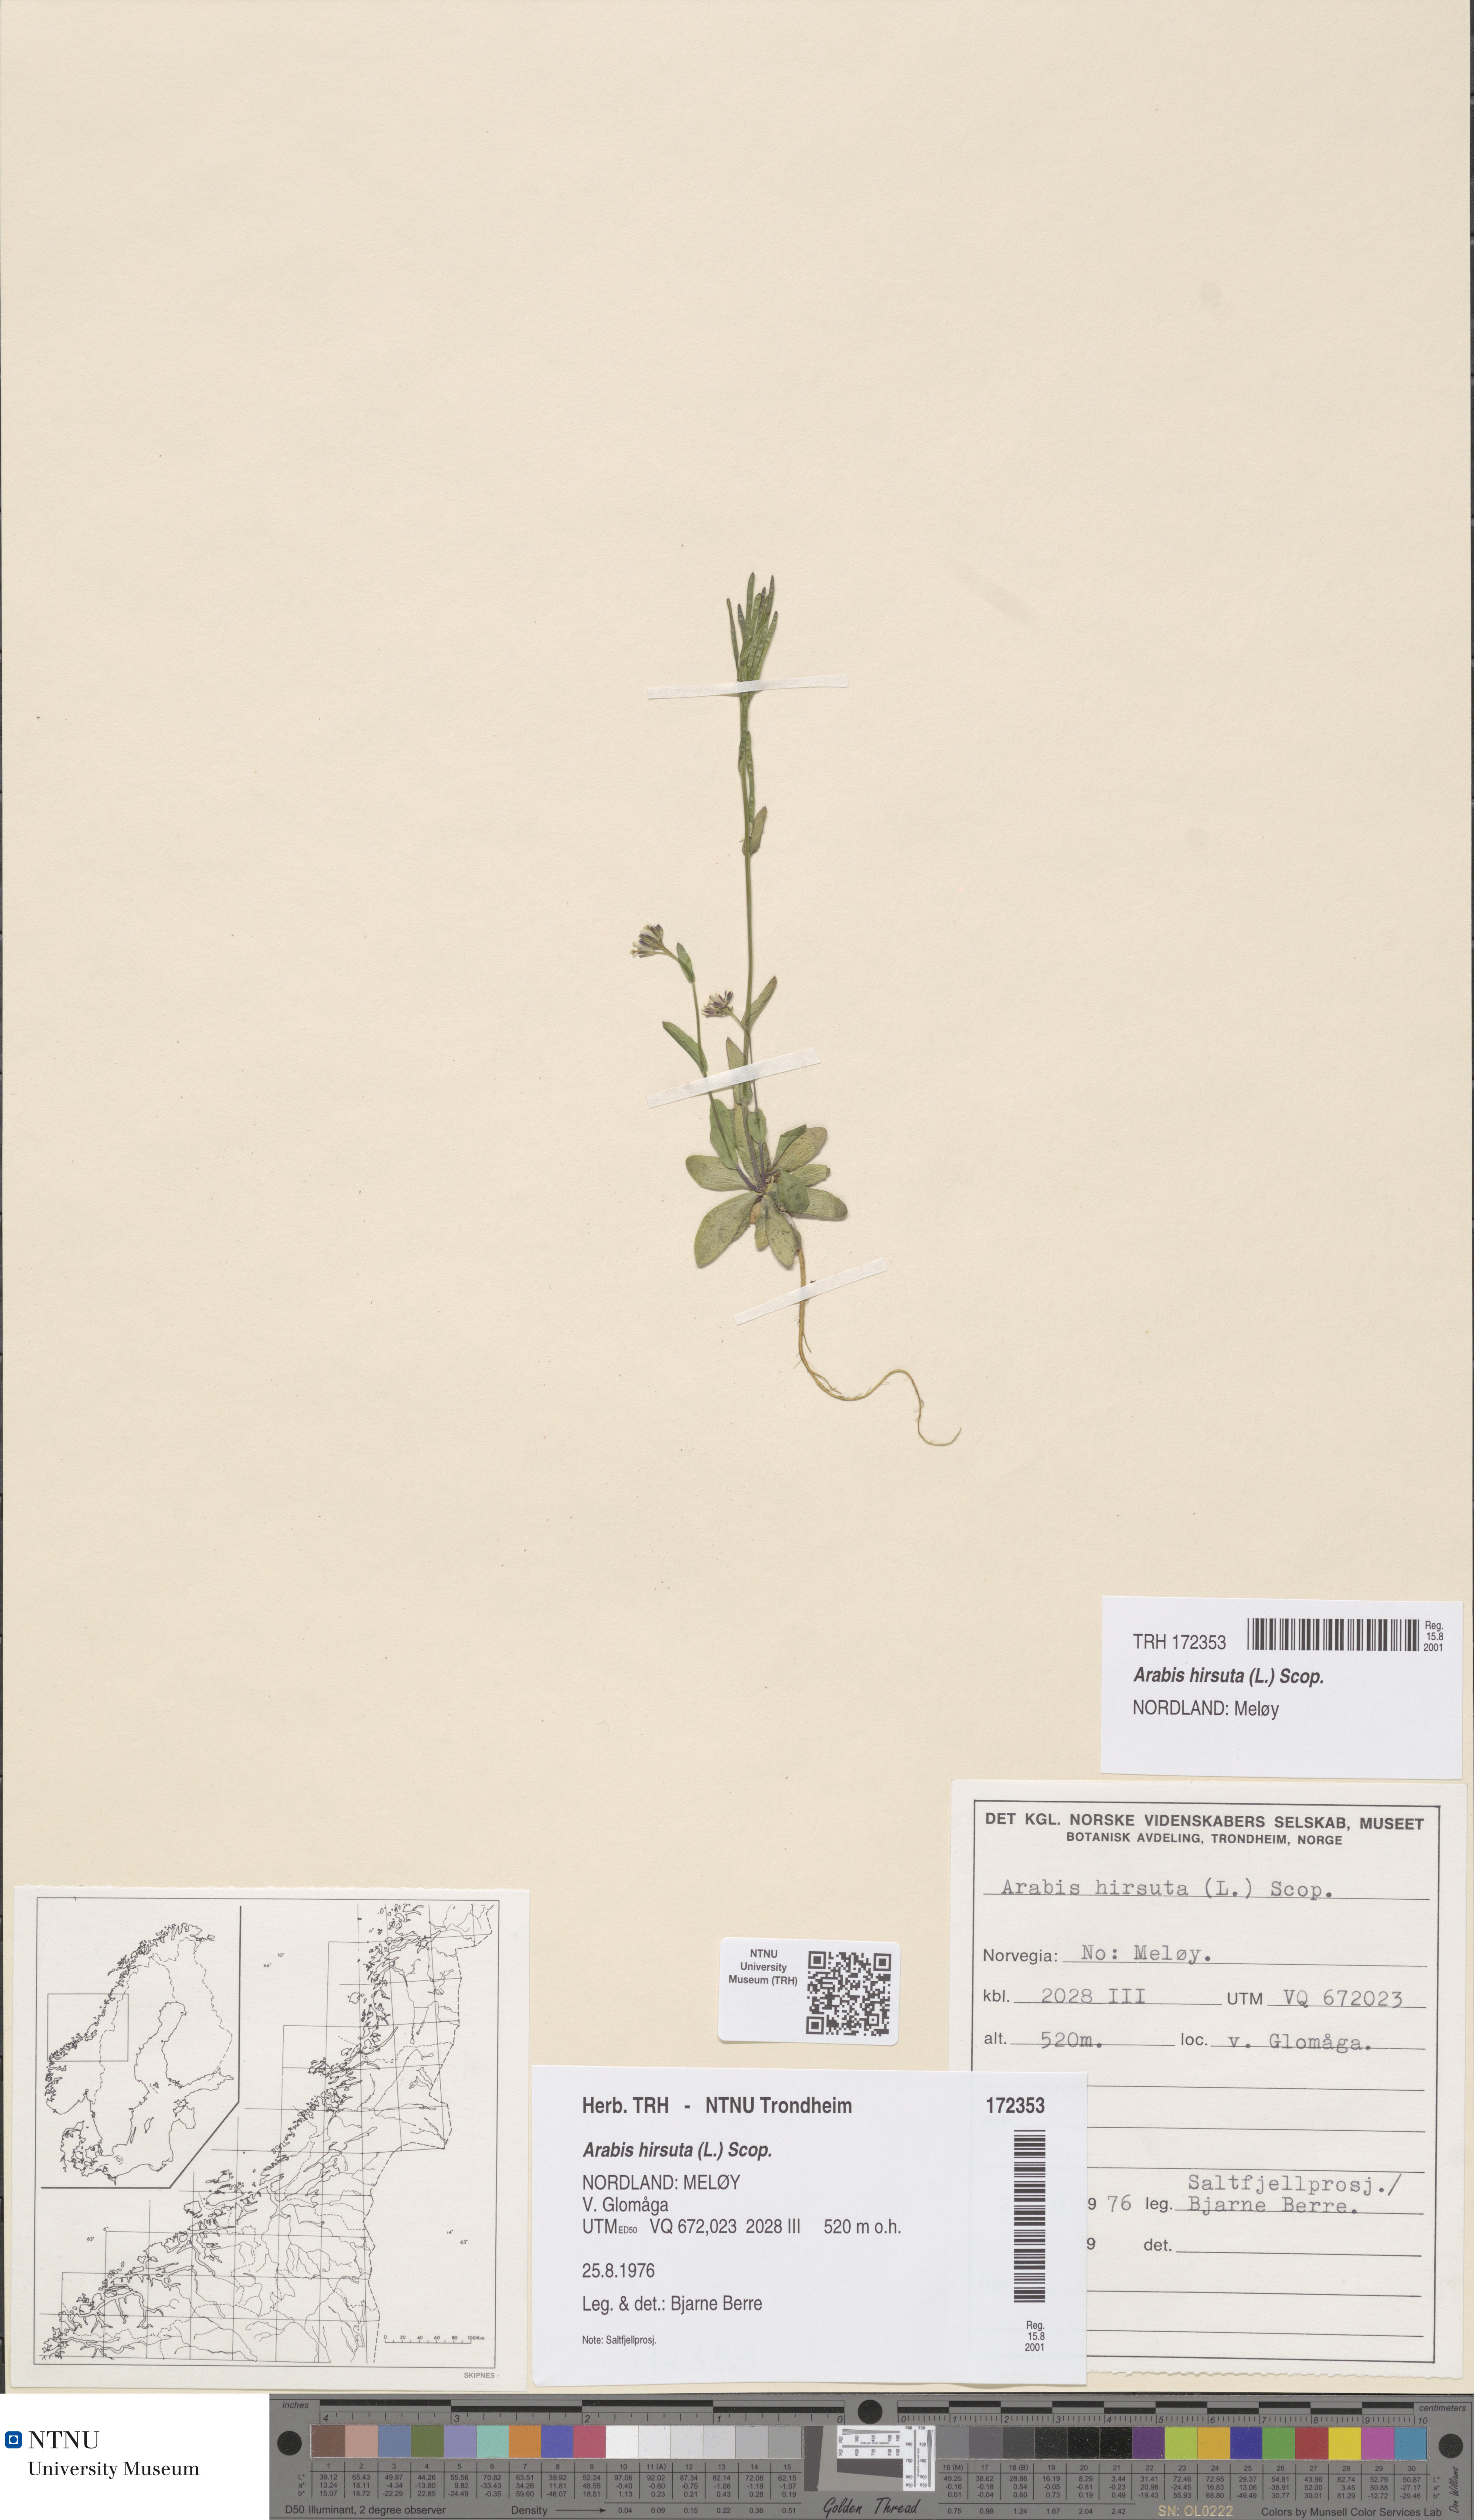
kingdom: Plantae
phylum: Tracheophyta
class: Magnoliopsida
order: Brassicales
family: Brassicaceae
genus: Arabis
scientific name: Arabis hirsuta
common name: Hairy rock-cress
